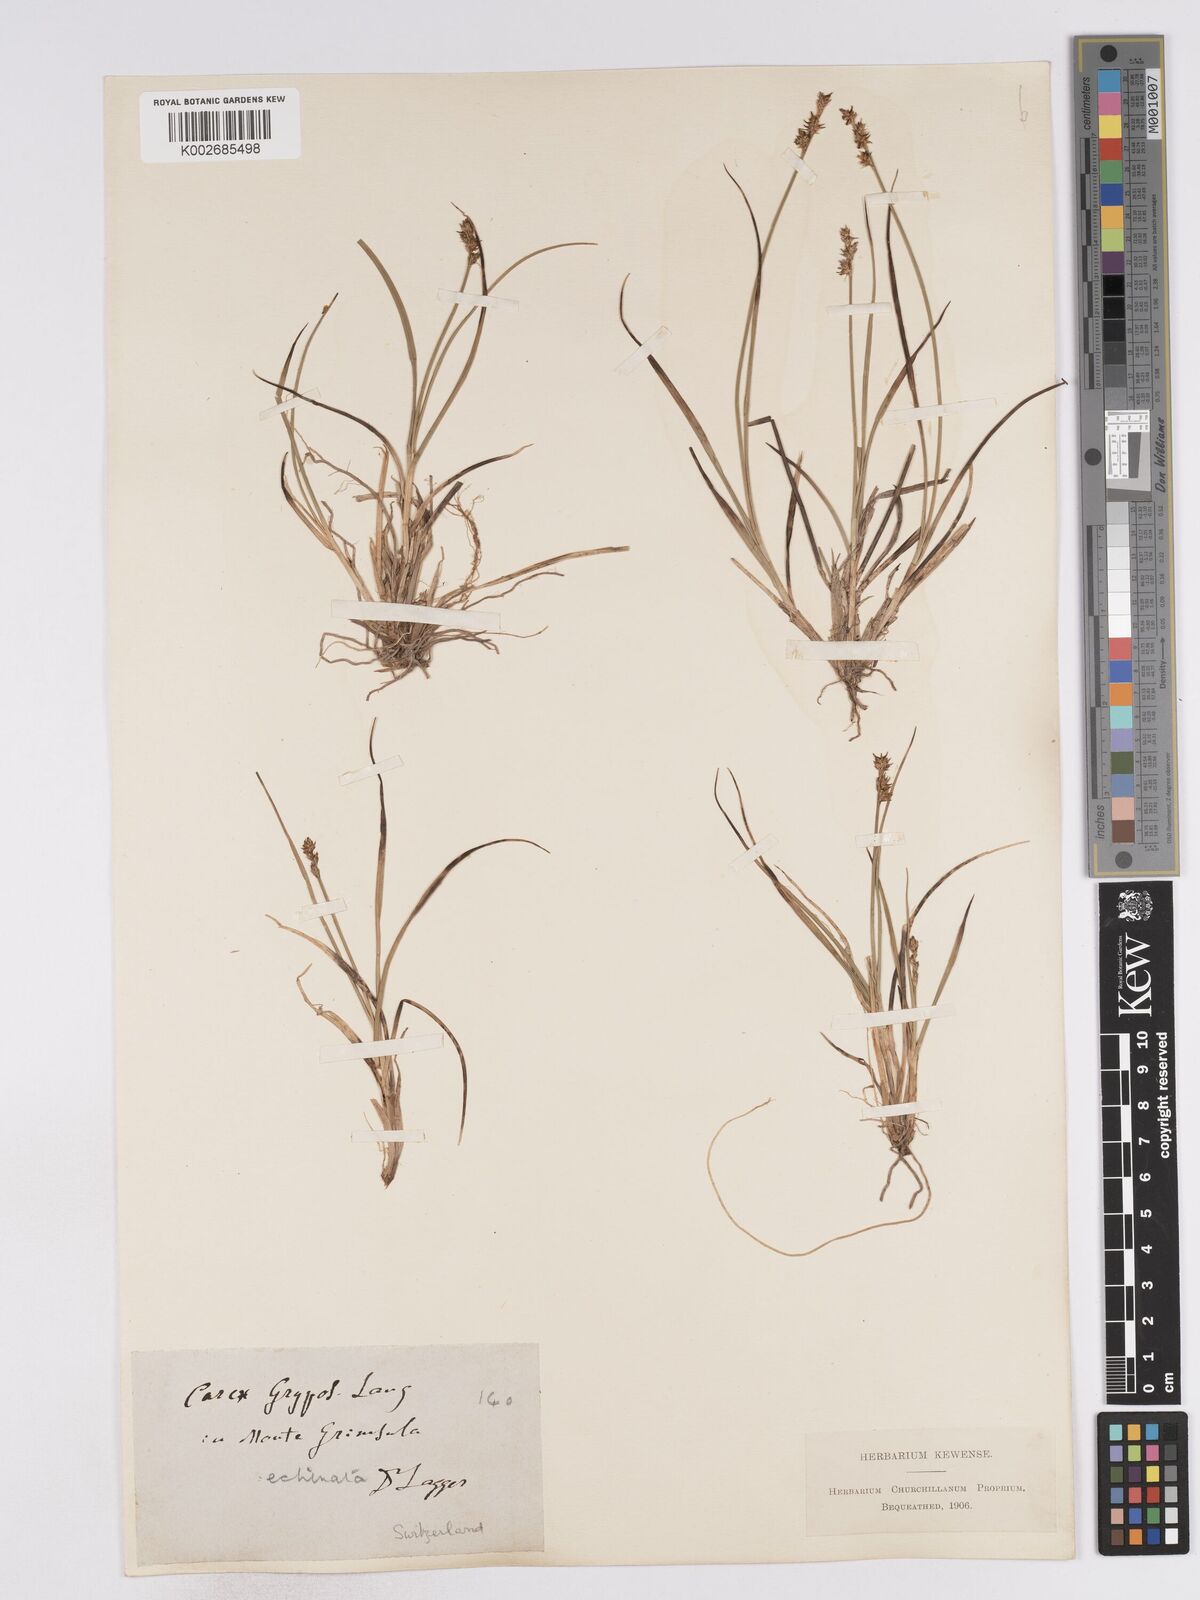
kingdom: Plantae
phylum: Tracheophyta
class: Liliopsida
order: Poales
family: Cyperaceae
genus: Carex
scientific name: Carex echinata
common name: Star sedge
